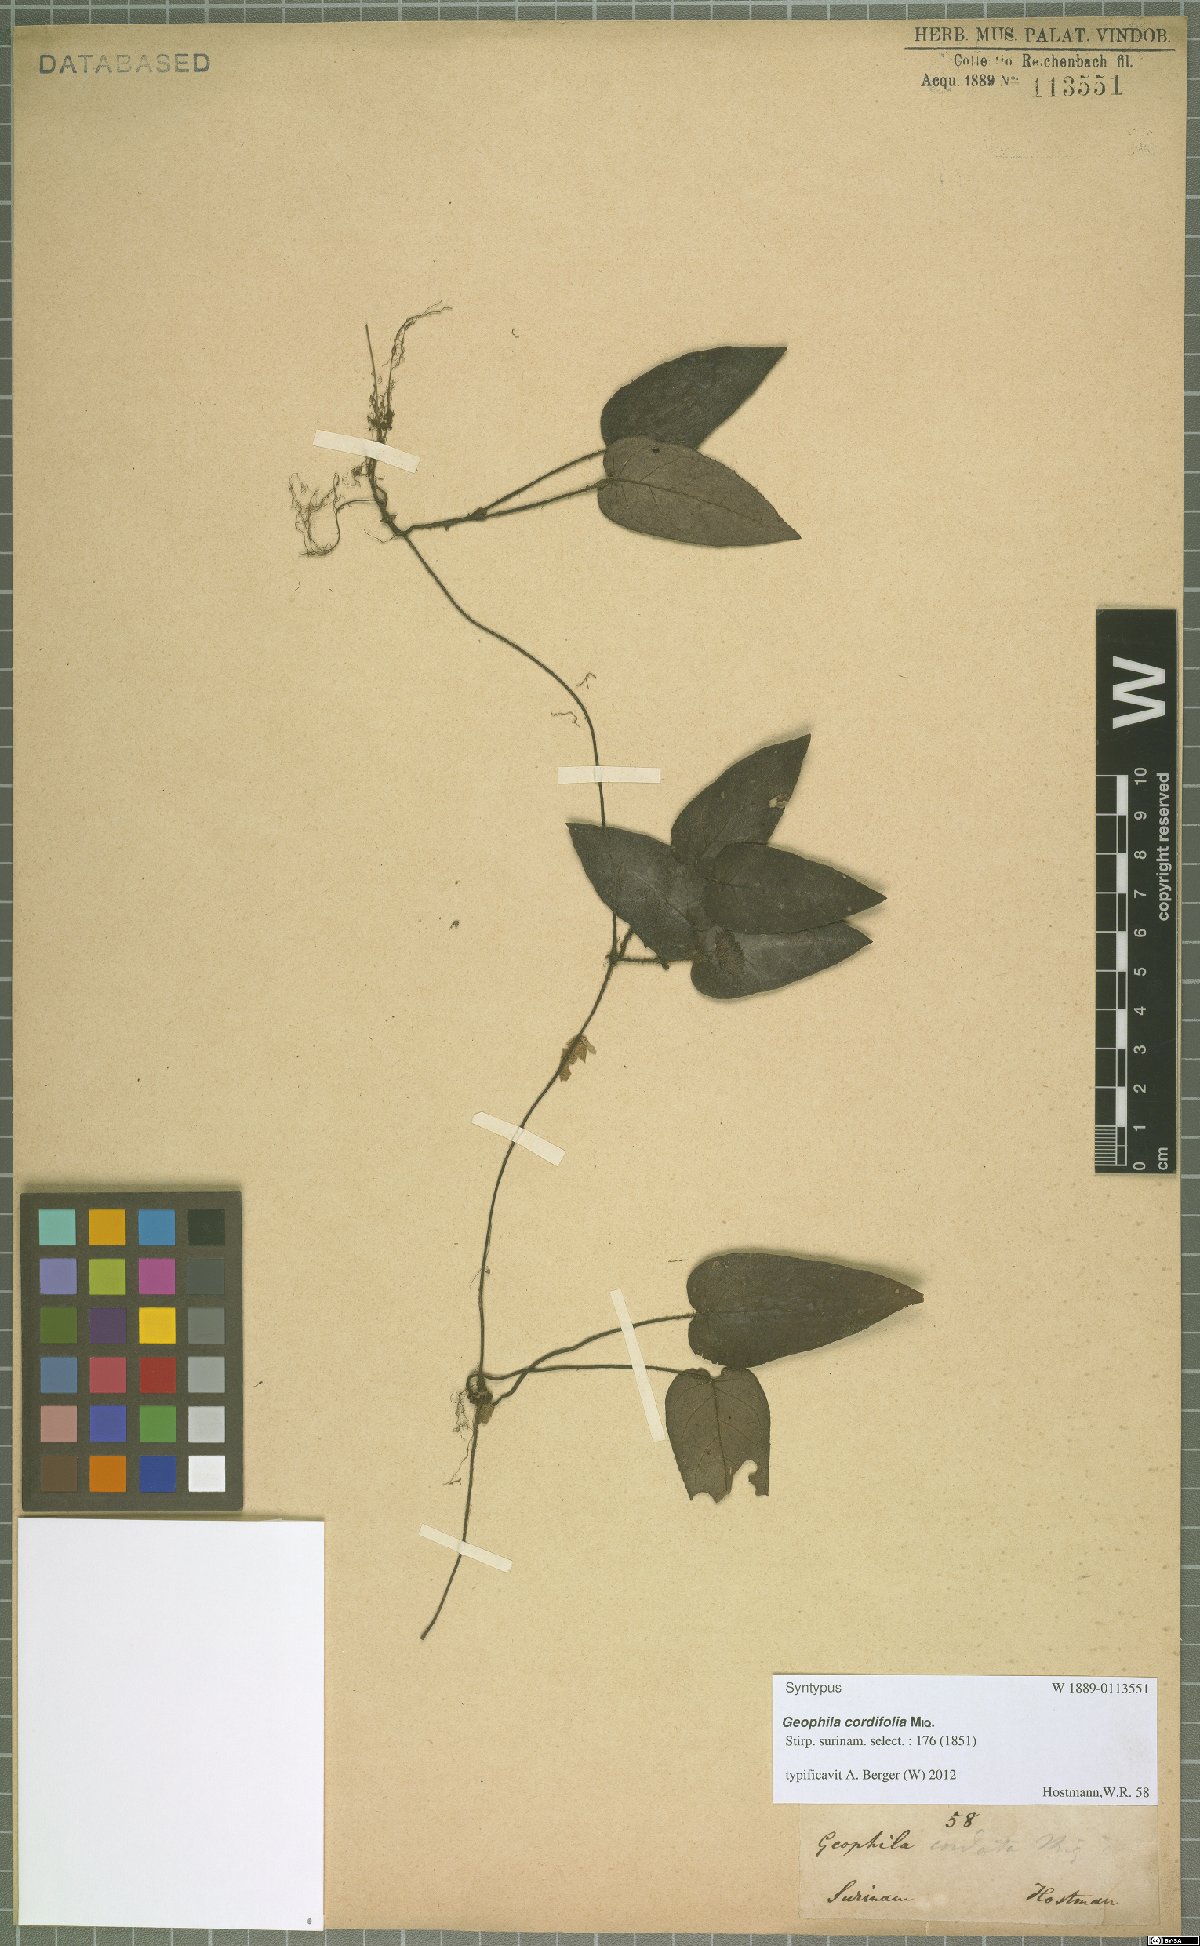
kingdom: Plantae
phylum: Tracheophyta
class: Magnoliopsida
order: Gentianales
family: Rubiaceae
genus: Geophila
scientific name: Geophila cordifolia
